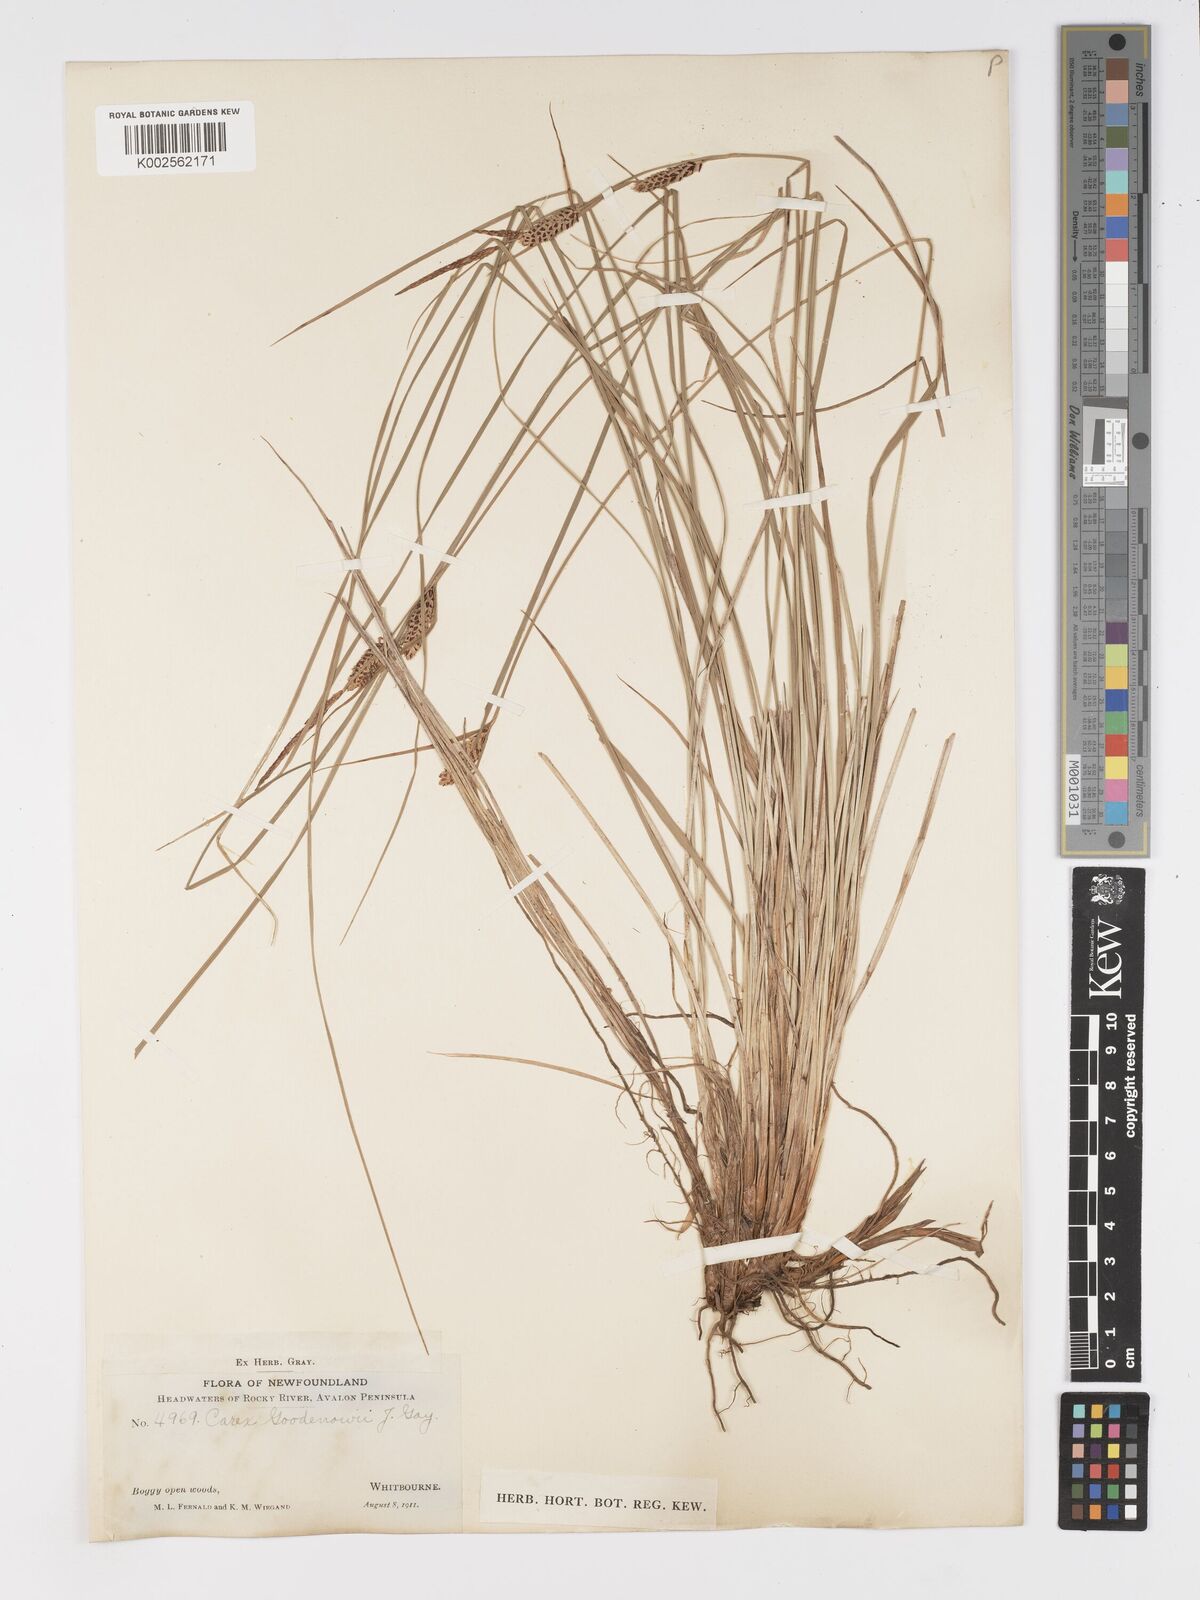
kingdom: Plantae
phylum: Tracheophyta
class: Liliopsida
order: Poales
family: Cyperaceae
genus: Carex
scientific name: Carex nigra
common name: Common sedge
